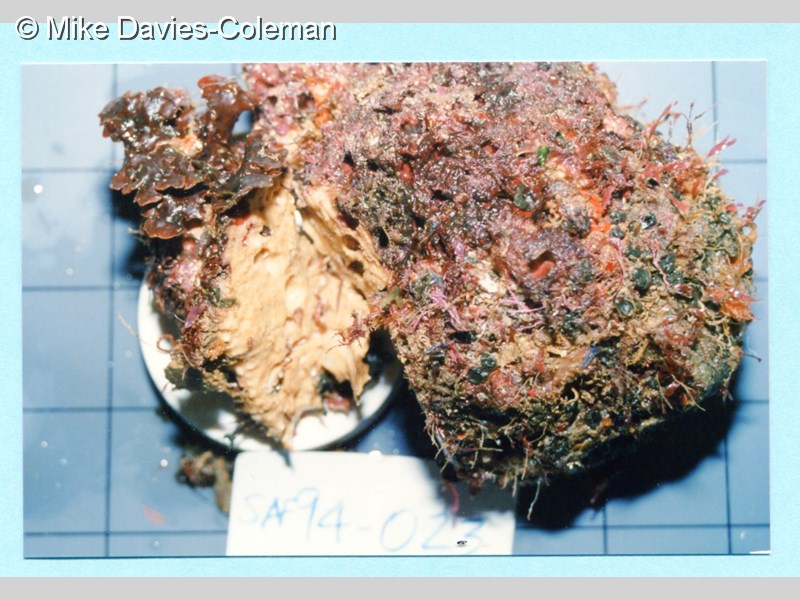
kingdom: Animalia
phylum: Porifera
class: Demospongiae
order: Haplosclerida
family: Phloeodictyidae
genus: Siphonodictyon
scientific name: Siphonodictyon
